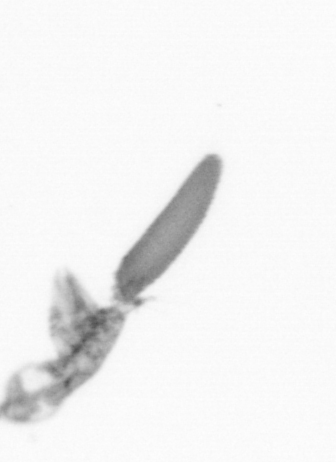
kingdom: Animalia
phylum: Arthropoda
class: Copepoda
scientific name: Copepoda
